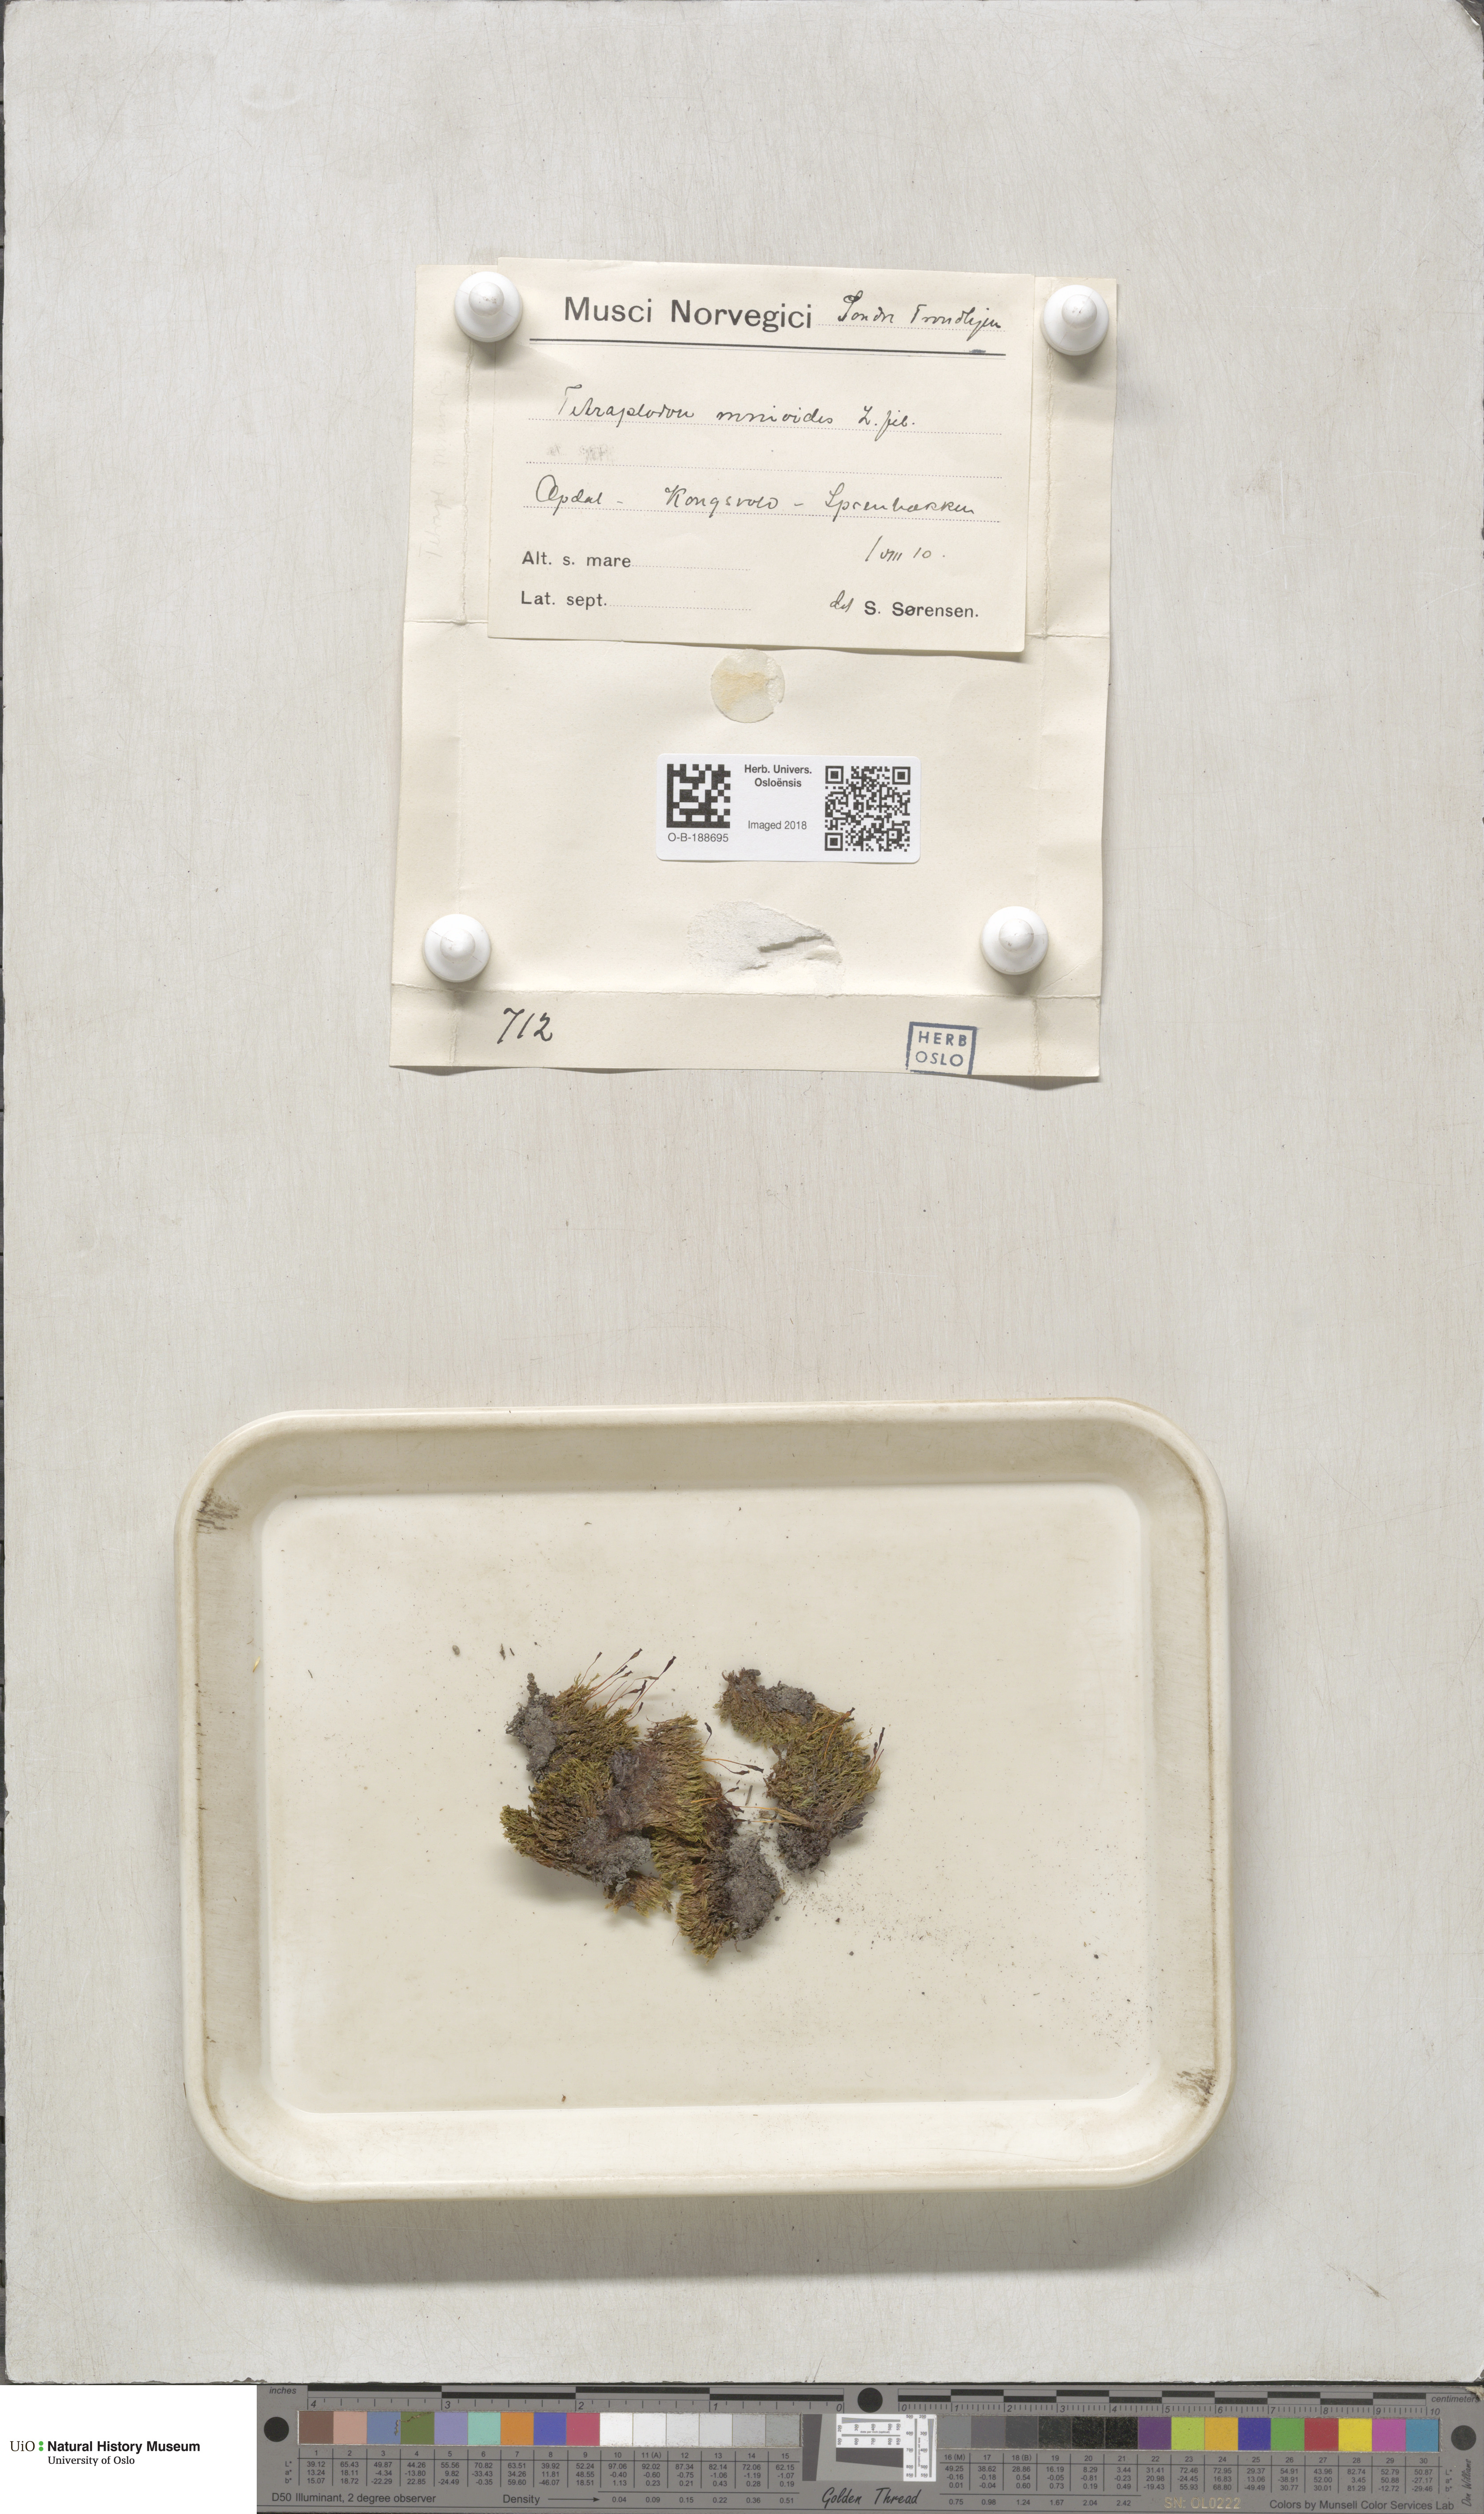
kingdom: Plantae
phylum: Bryophyta
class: Bryopsida
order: Splachnales
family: Splachnaceae
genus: Tetraplodon
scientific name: Tetraplodon mnioides
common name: Entire-leaved nitrogen moss
